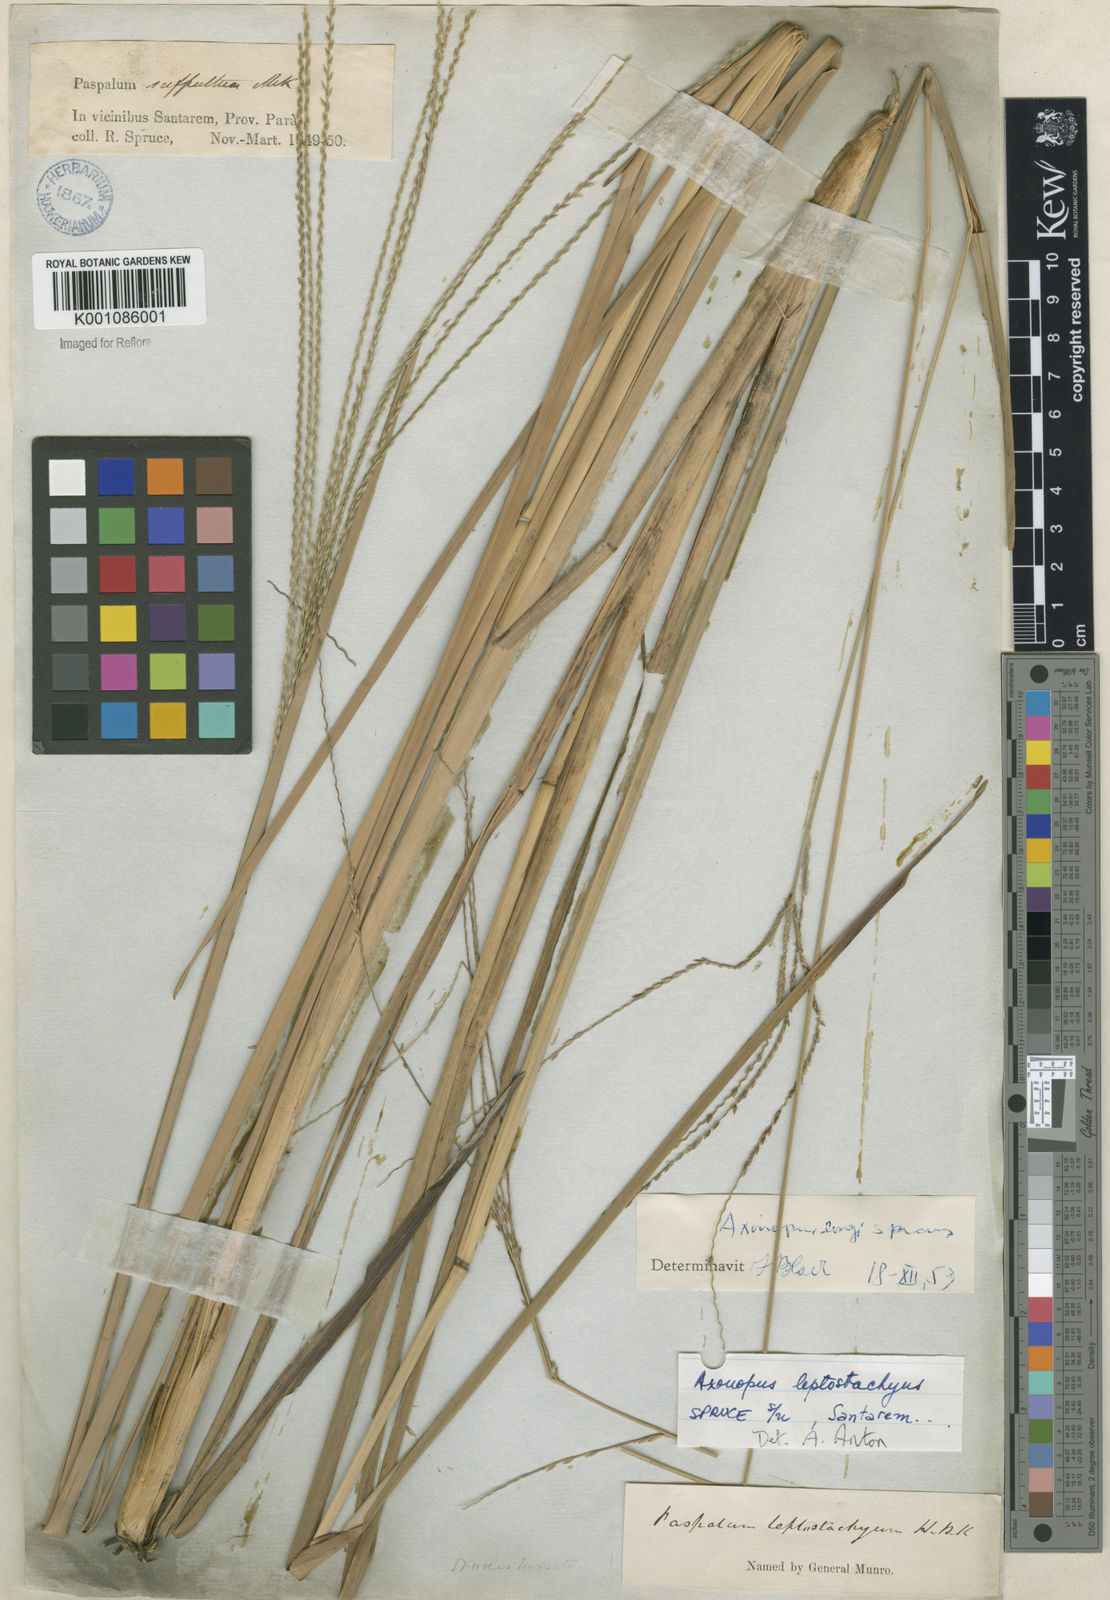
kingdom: Plantae
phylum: Tracheophyta
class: Liliopsida
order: Poales
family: Poaceae
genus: Axonopus
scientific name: Axonopus
